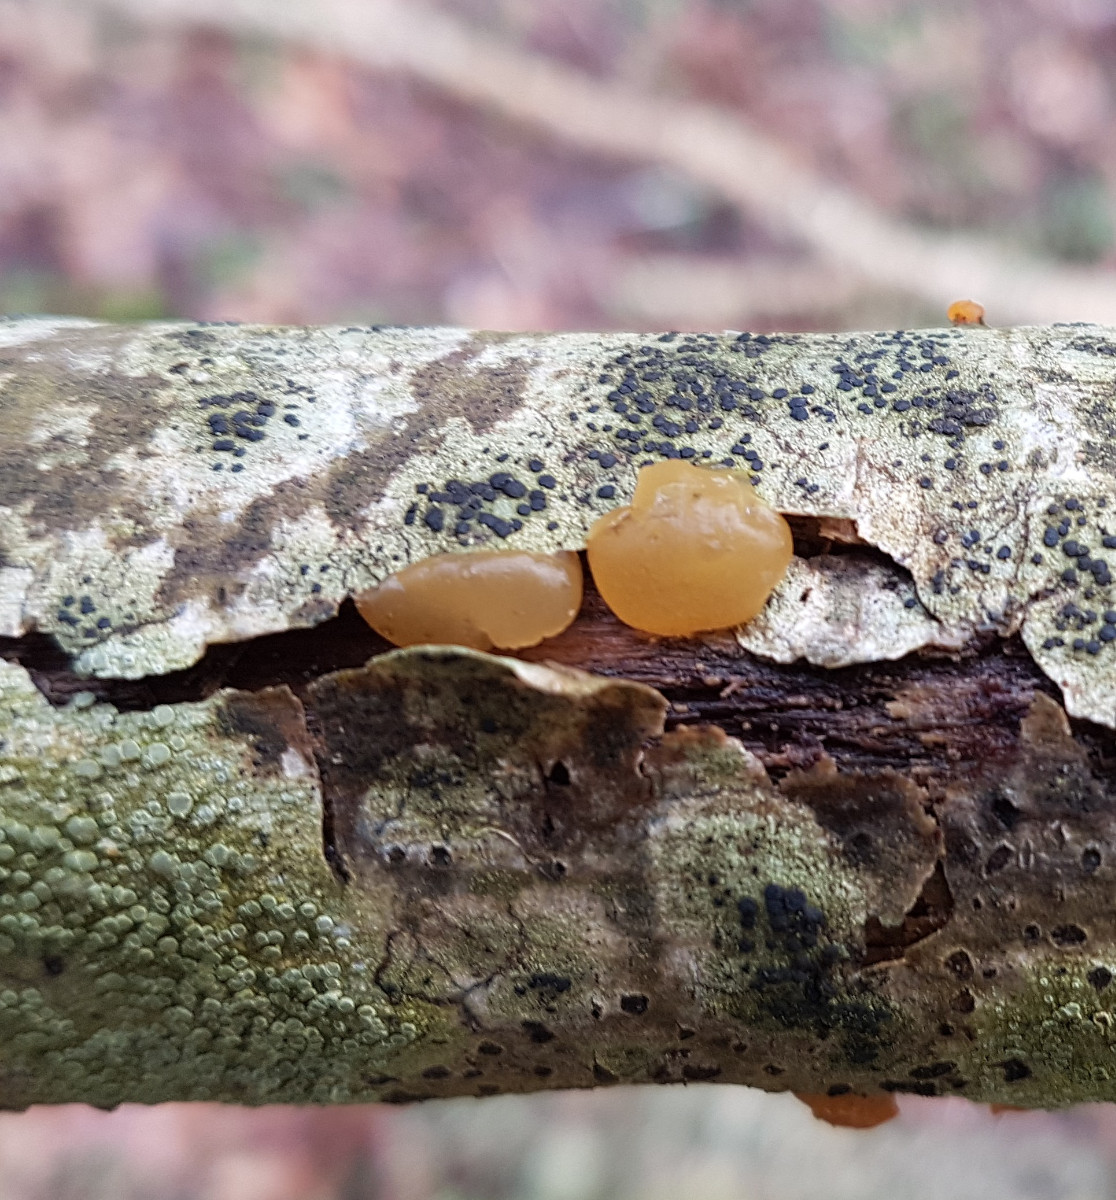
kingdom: Fungi
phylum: Basidiomycota
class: Dacrymycetes
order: Dacrymycetales
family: Dacrymycetaceae
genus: Dacrymyces
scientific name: Dacrymyces
